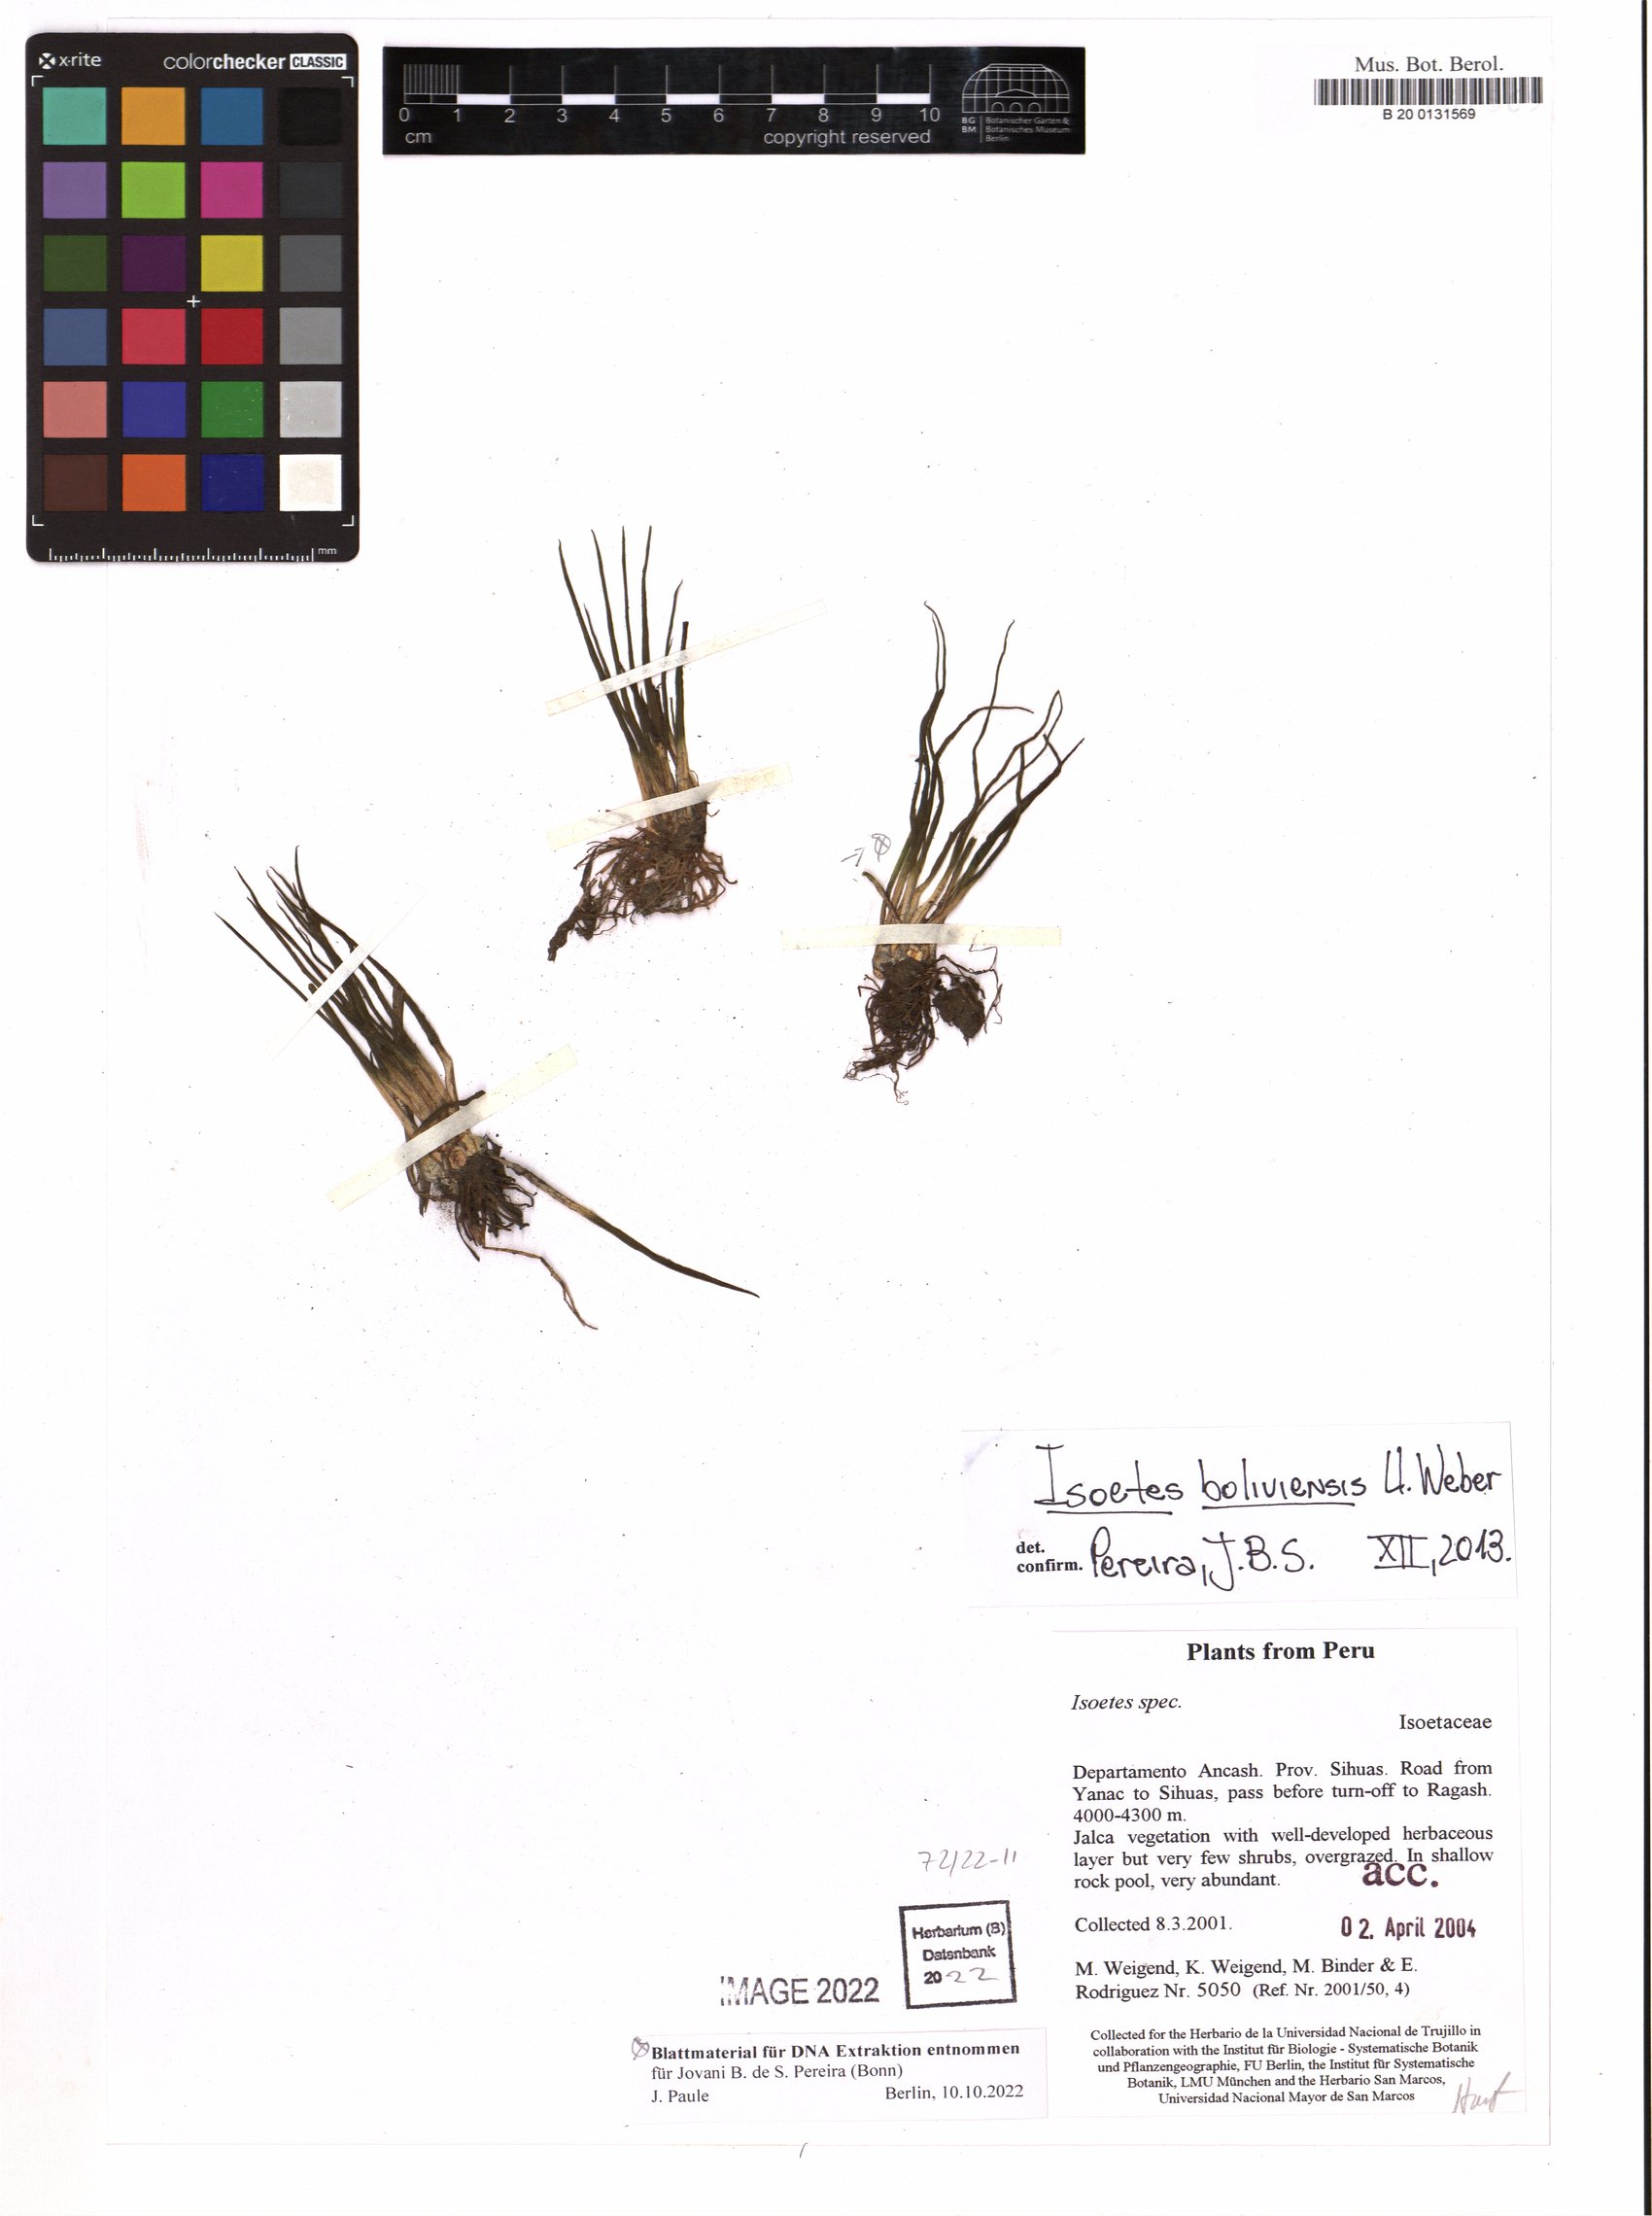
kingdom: Plantae
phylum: Tracheophyta
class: Lycopodiopsida
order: Isoetales
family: Isoetaceae
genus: Isoetes
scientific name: Isoetes boliviensis
